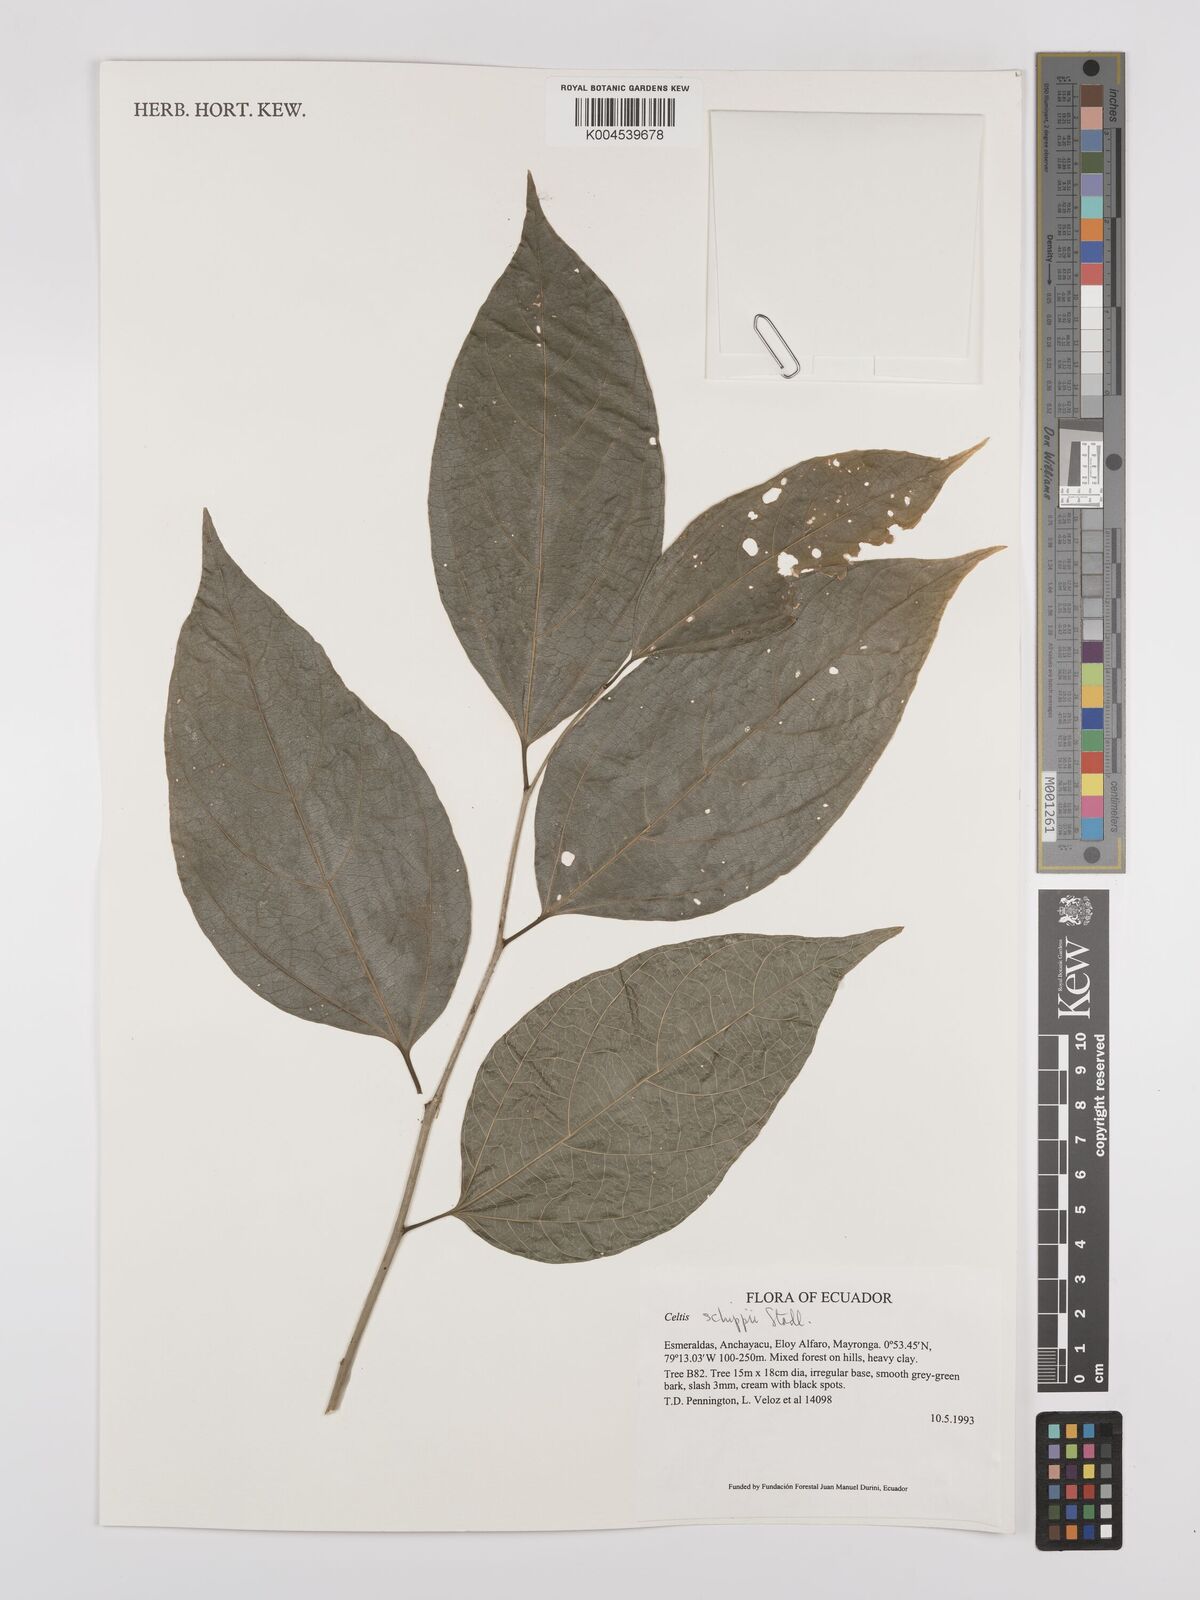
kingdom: Plantae
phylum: Tracheophyta
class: Magnoliopsida
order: Rosales
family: Cannabaceae
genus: Celtis
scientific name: Celtis schippii
